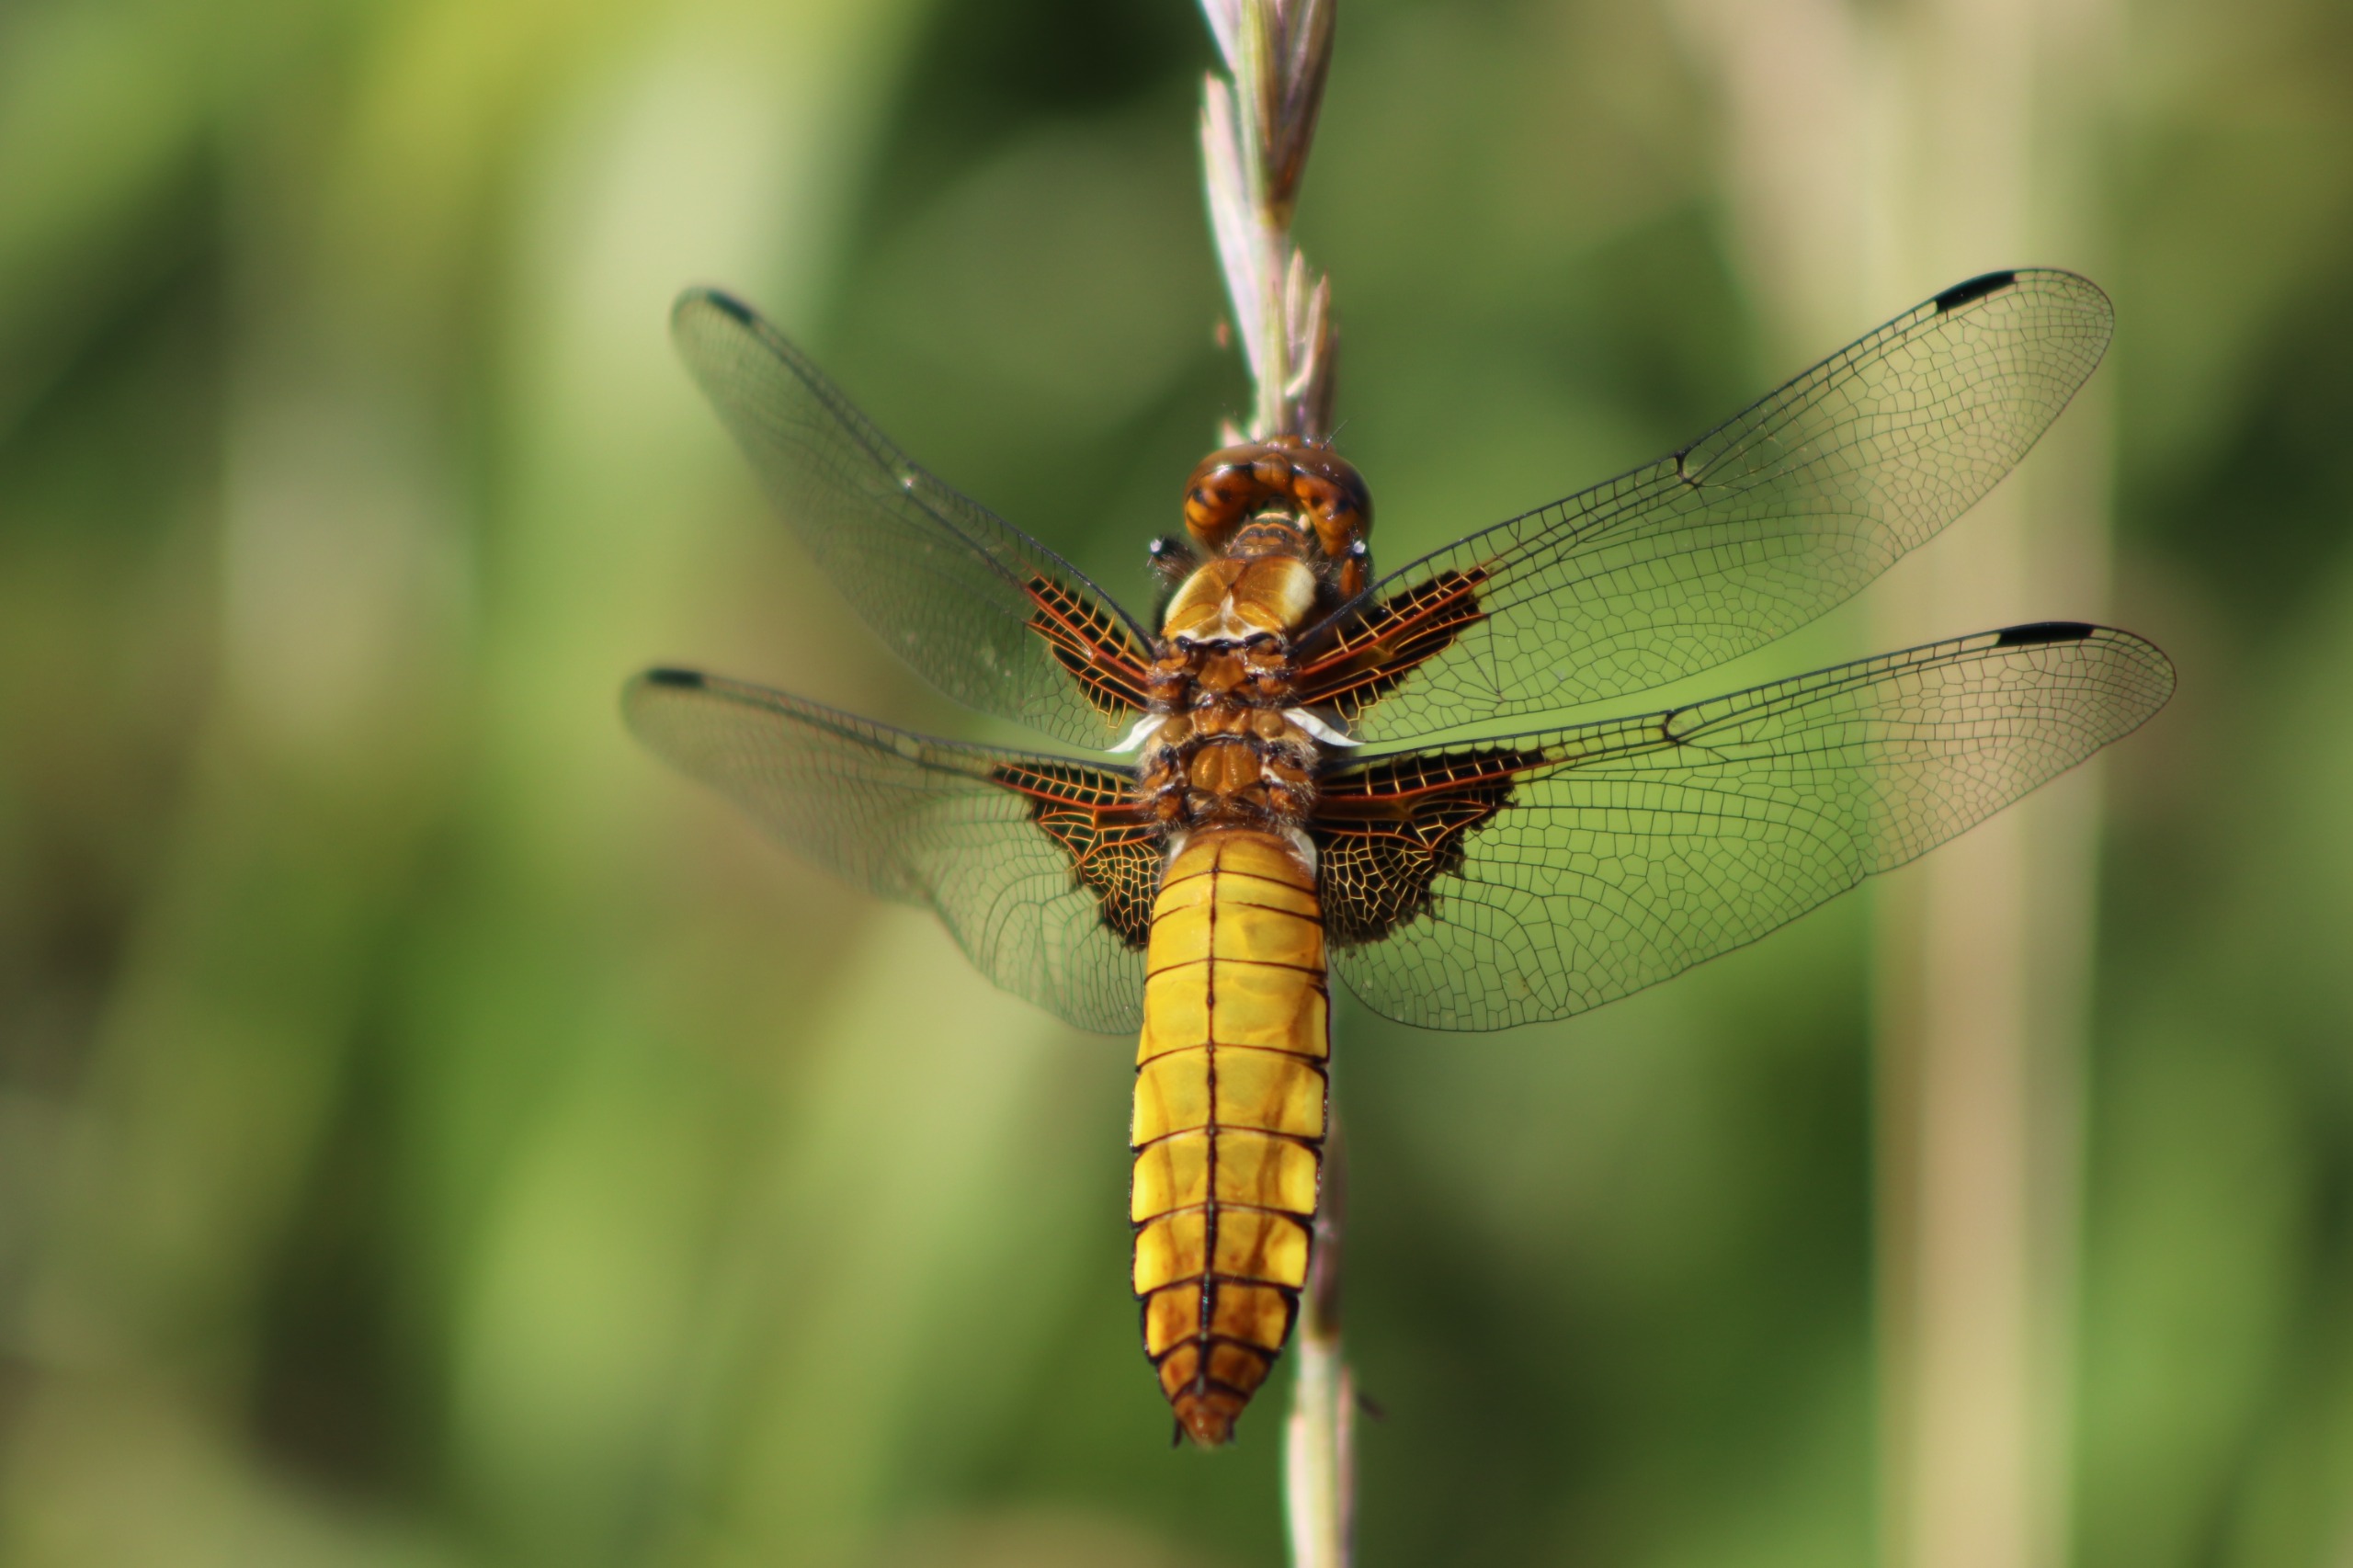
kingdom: Animalia
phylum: Arthropoda
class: Insecta
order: Odonata
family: Libellulidae
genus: Libellula
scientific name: Libellula depressa
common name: Blå libel
